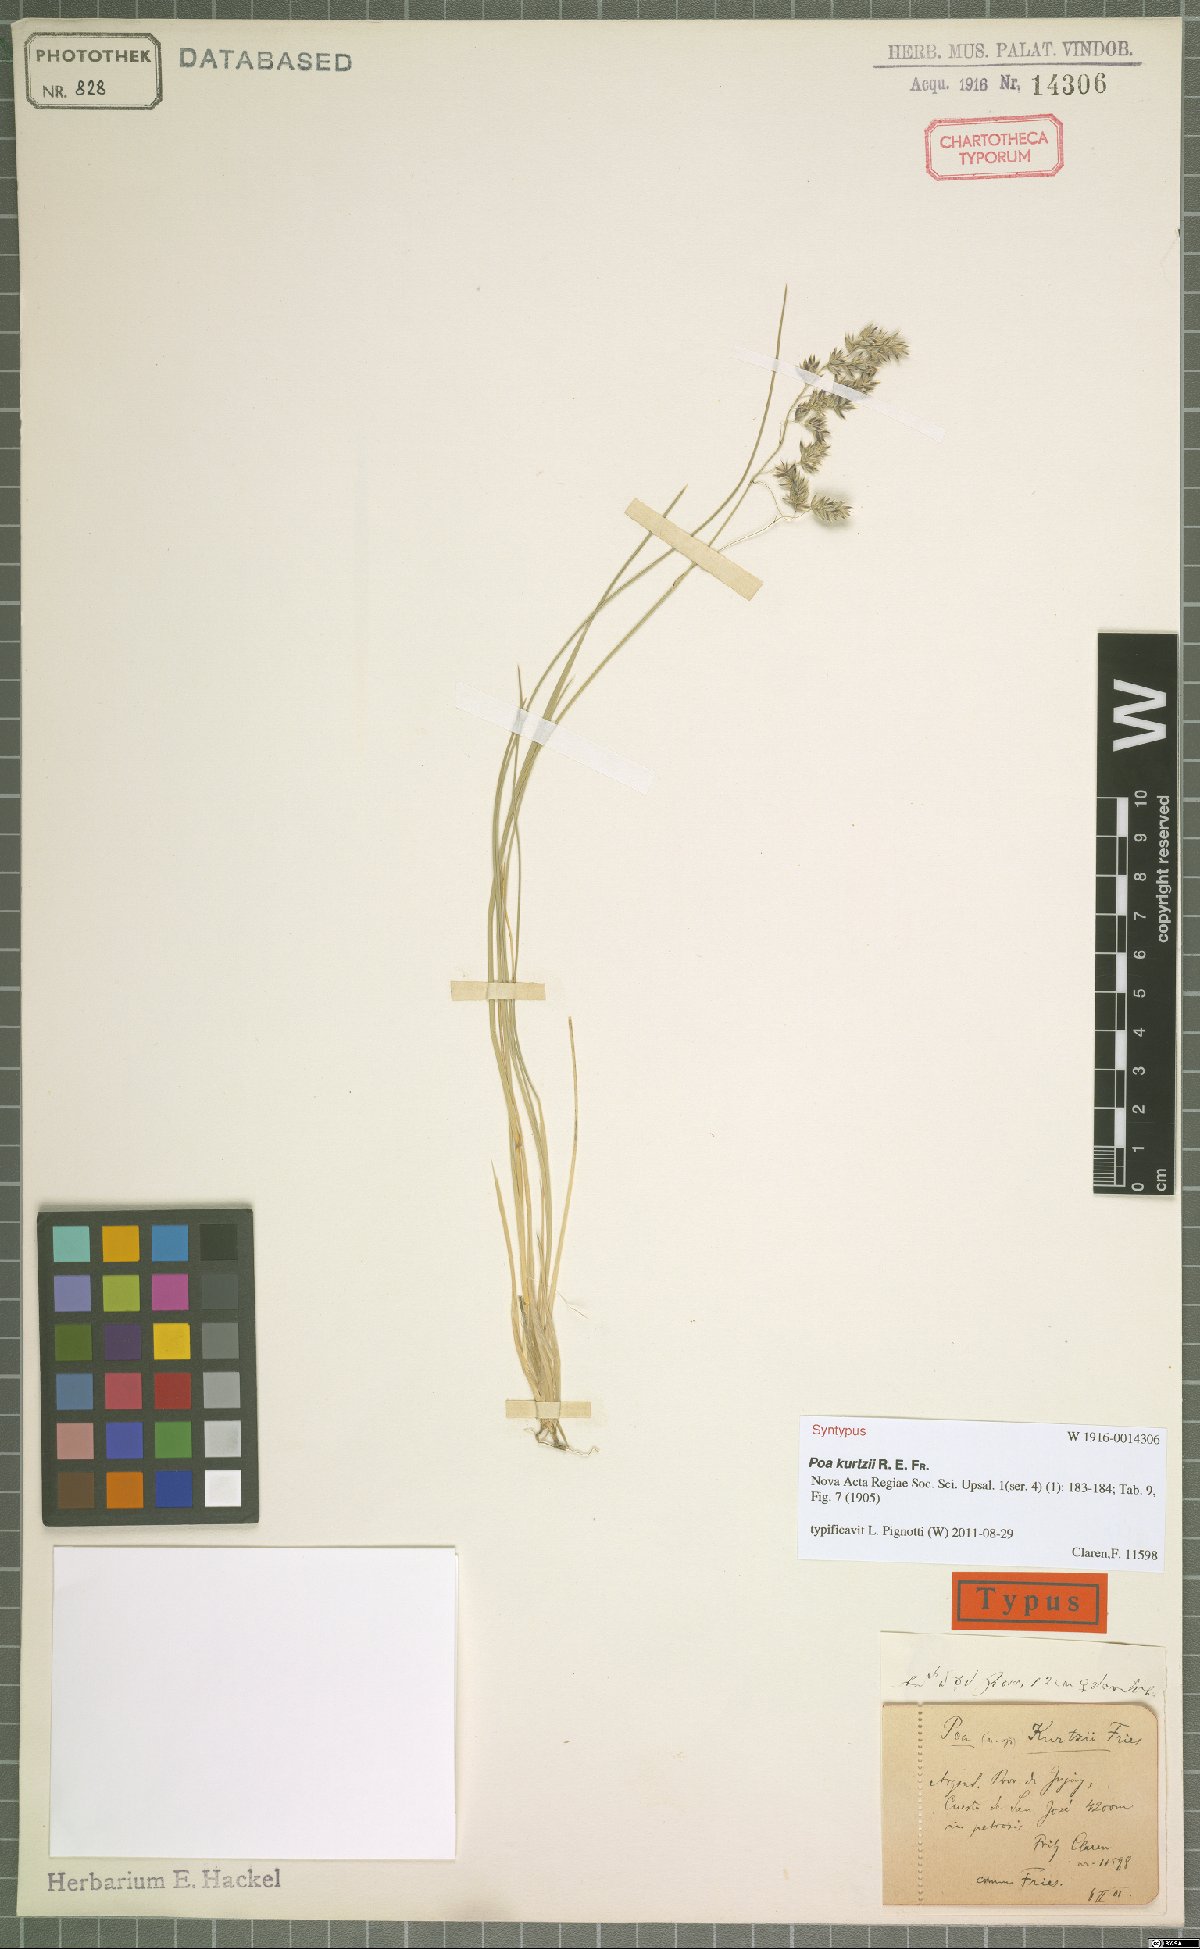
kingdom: Plantae
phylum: Tracheophyta
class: Liliopsida
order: Poales
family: Poaceae
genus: Poa
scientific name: Poa kurtzii
